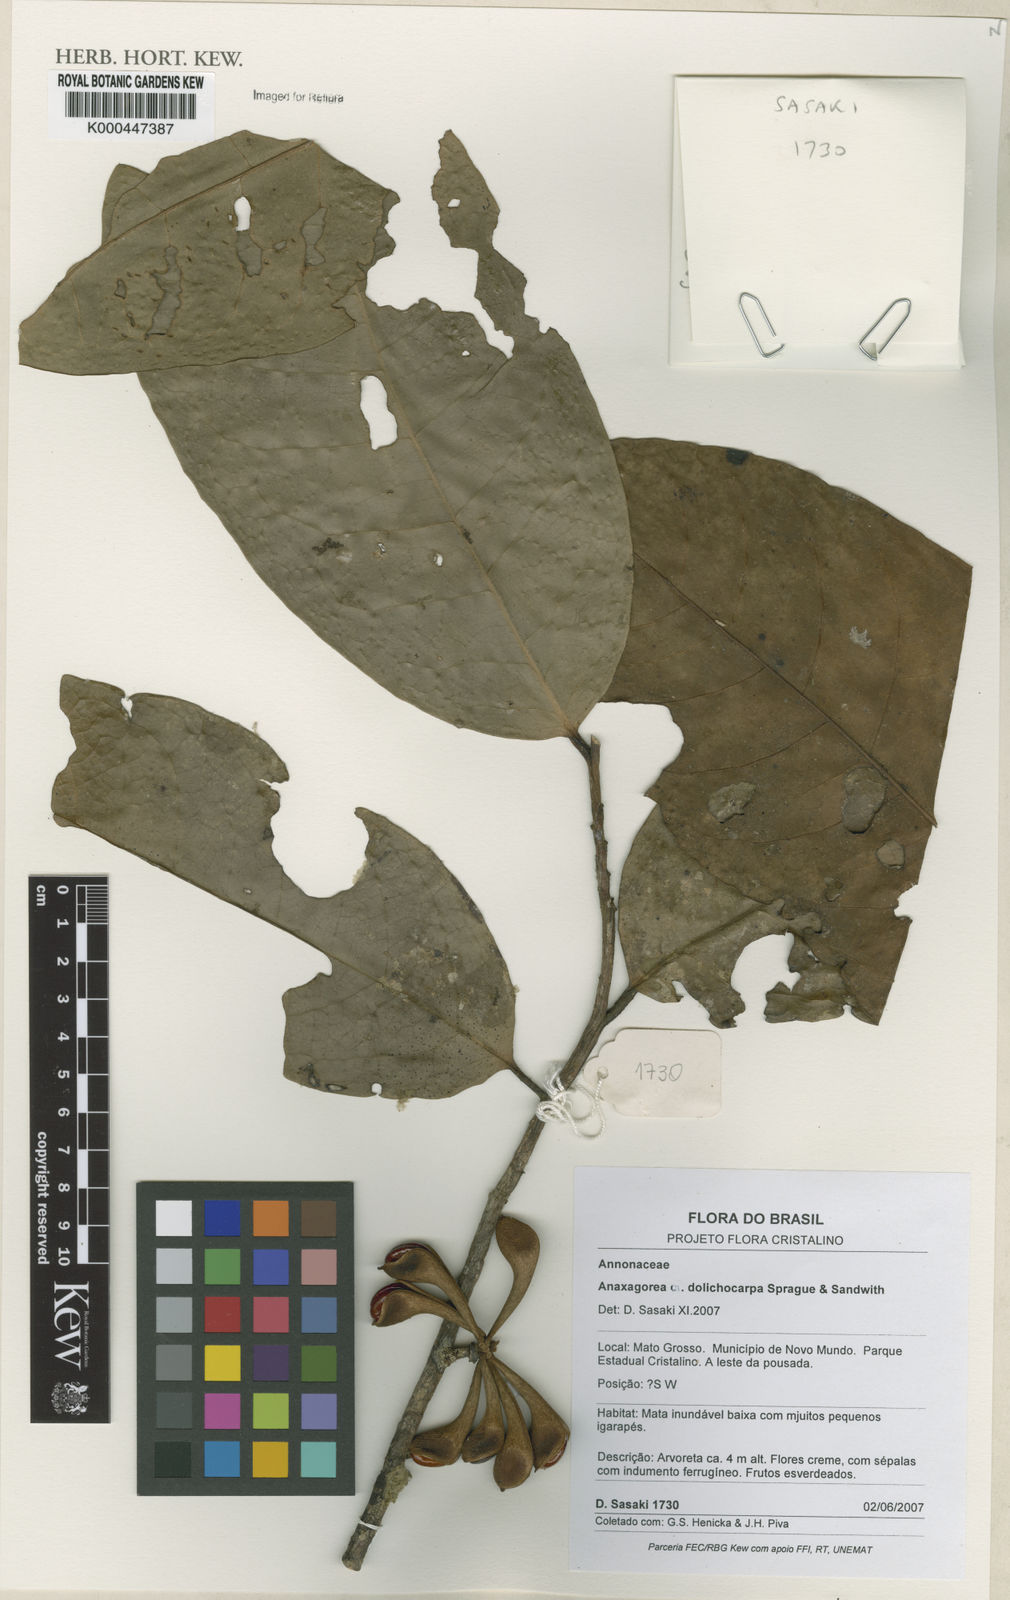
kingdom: Plantae
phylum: Tracheophyta
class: Magnoliopsida
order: Magnoliales
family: Annonaceae
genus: Anaxagorea
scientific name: Anaxagorea dolichocarpa
